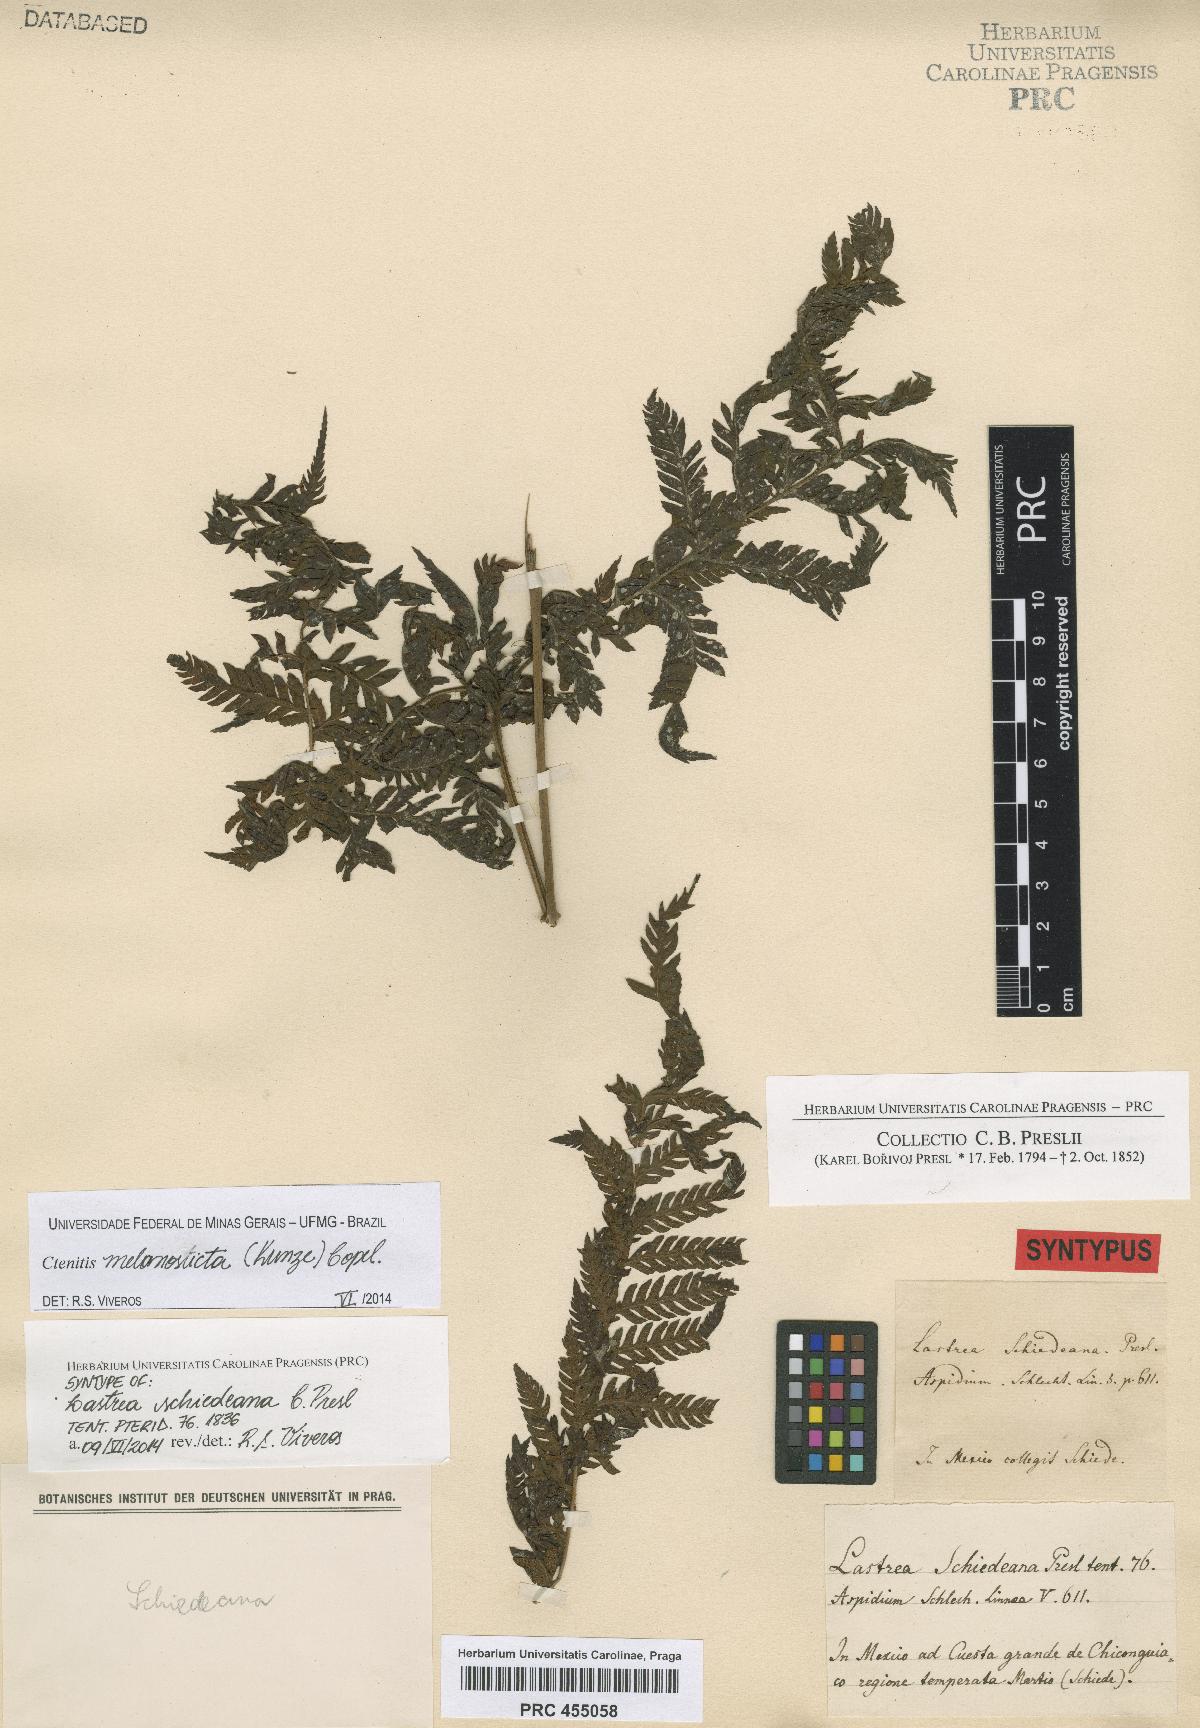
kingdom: Plantae
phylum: Tracheophyta
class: Polypodiopsida
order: Polypodiales
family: Dryopteridaceae
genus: Ctenitis
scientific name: Ctenitis melanosticta
